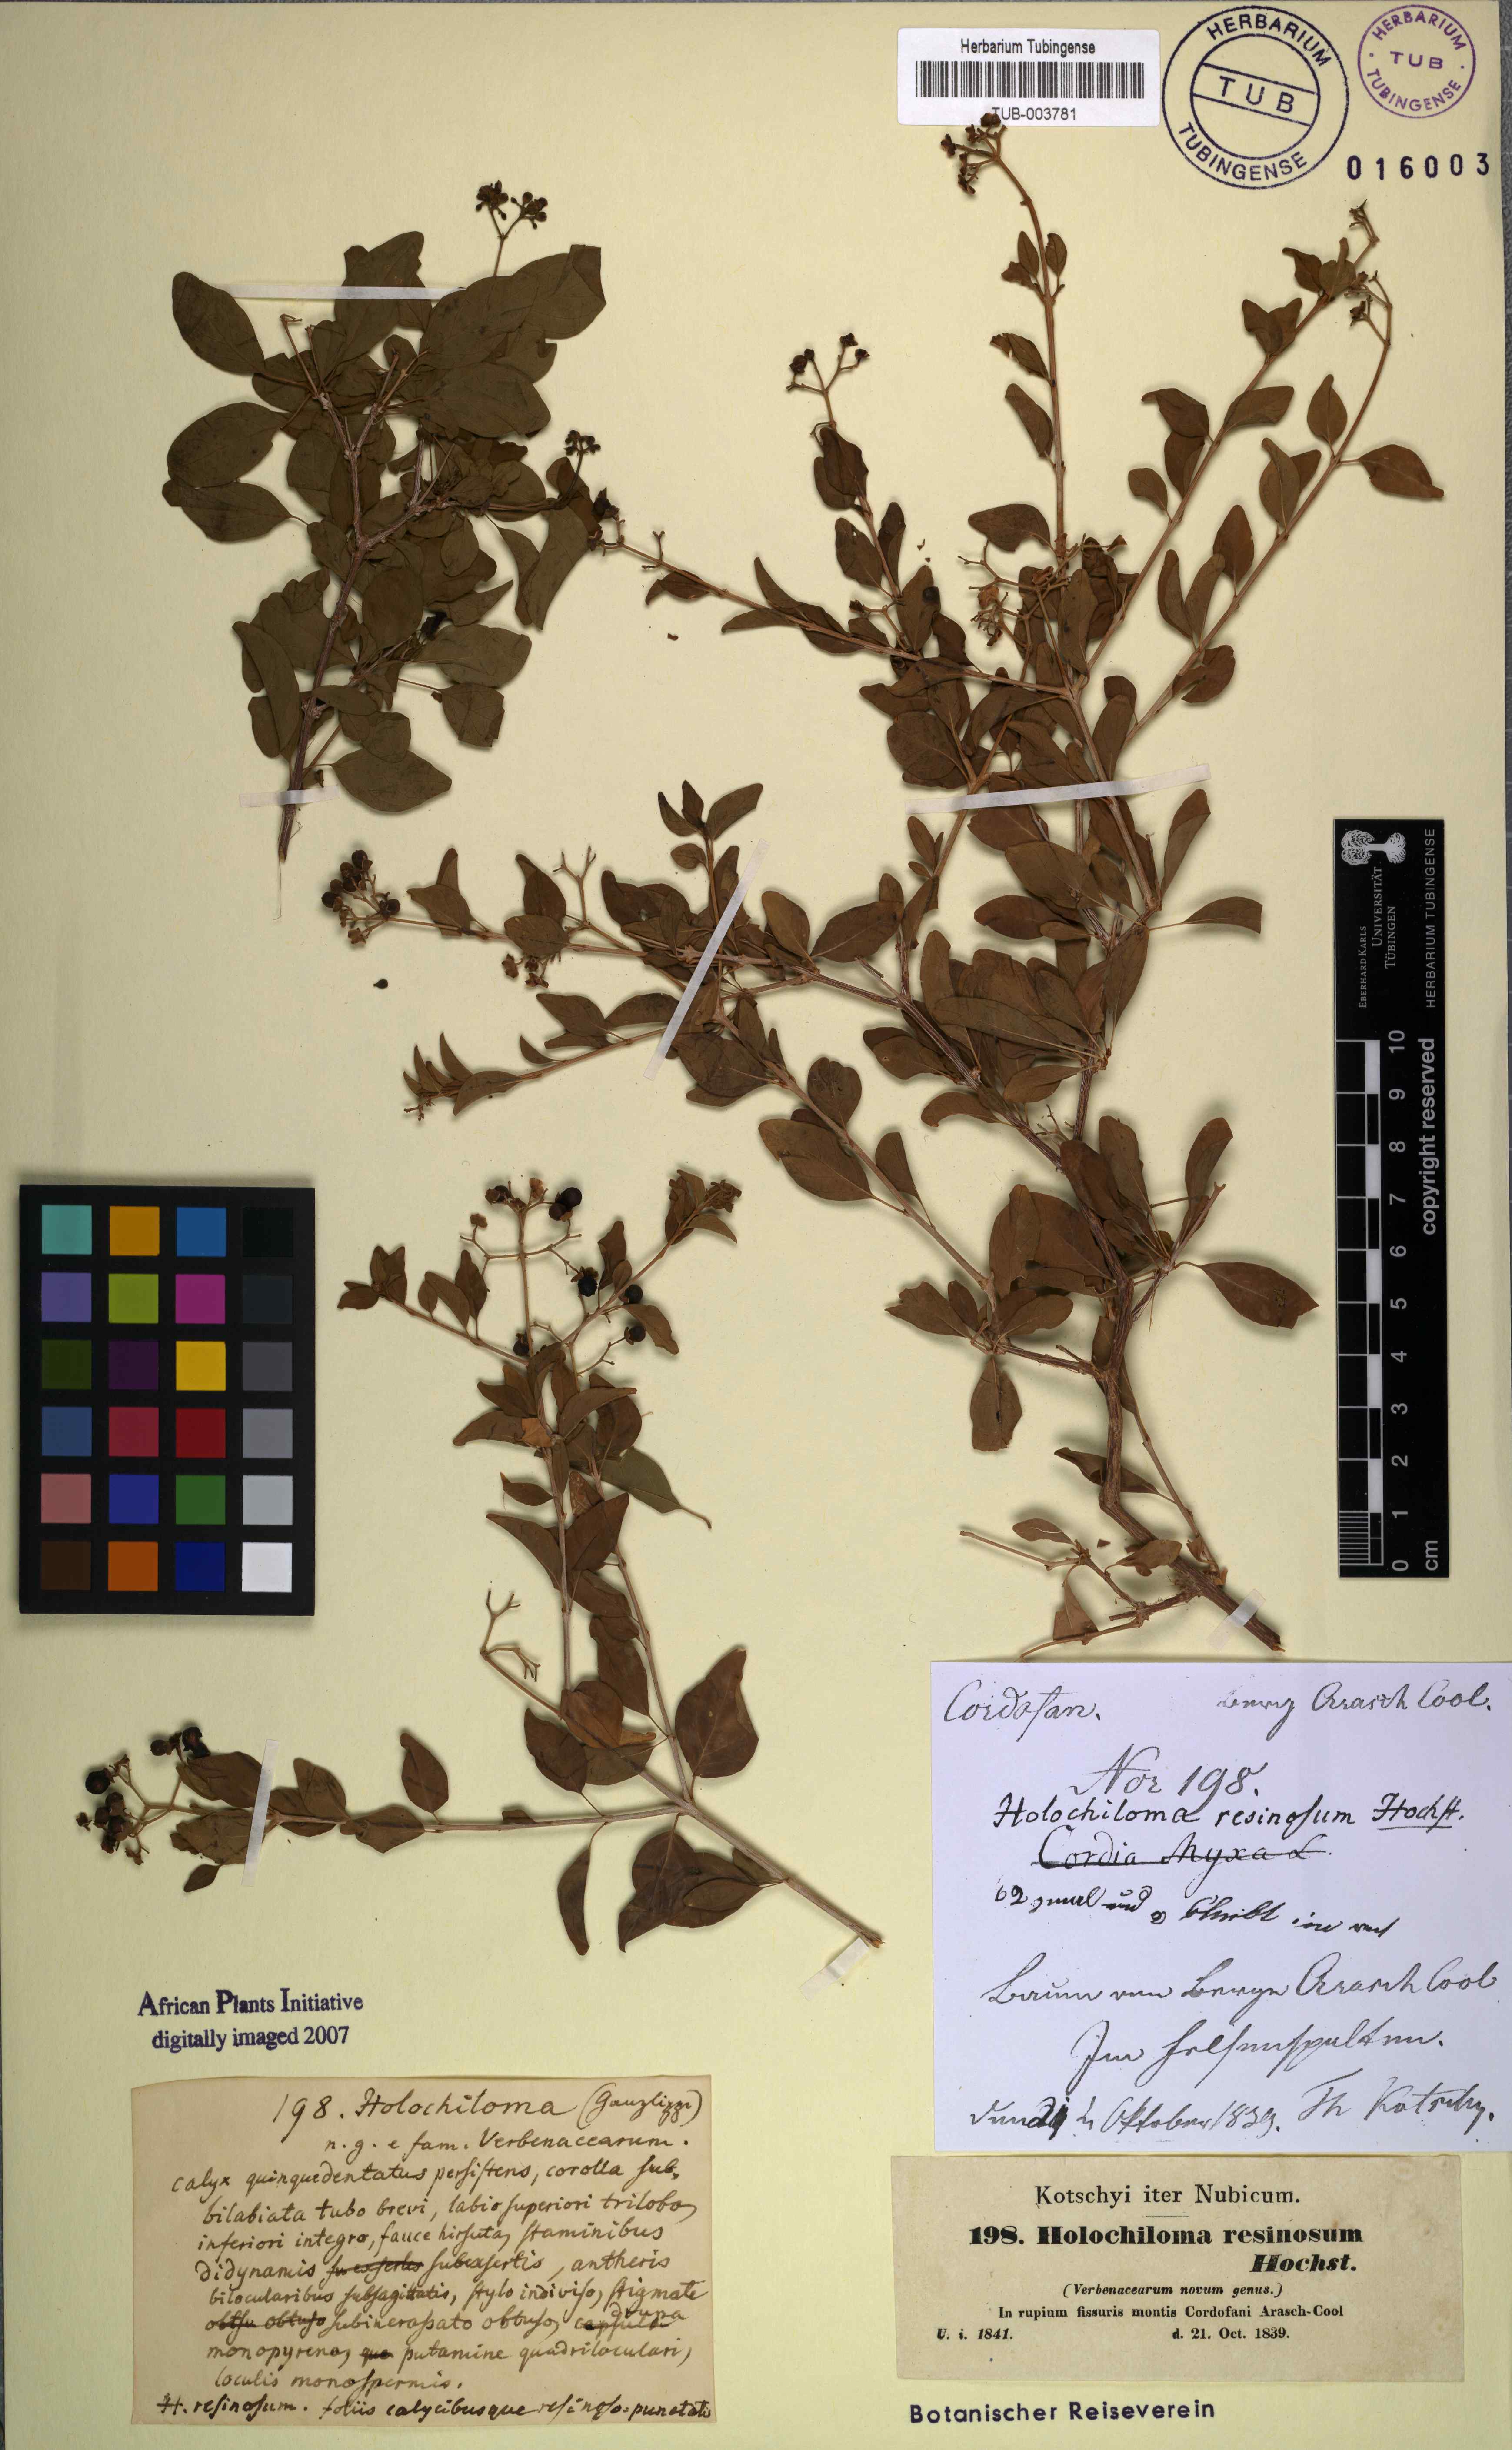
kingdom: Plantae
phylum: Tracheophyta
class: Magnoliopsida
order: Lamiales
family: Lamiaceae
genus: Premna
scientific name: Premna resinosa
